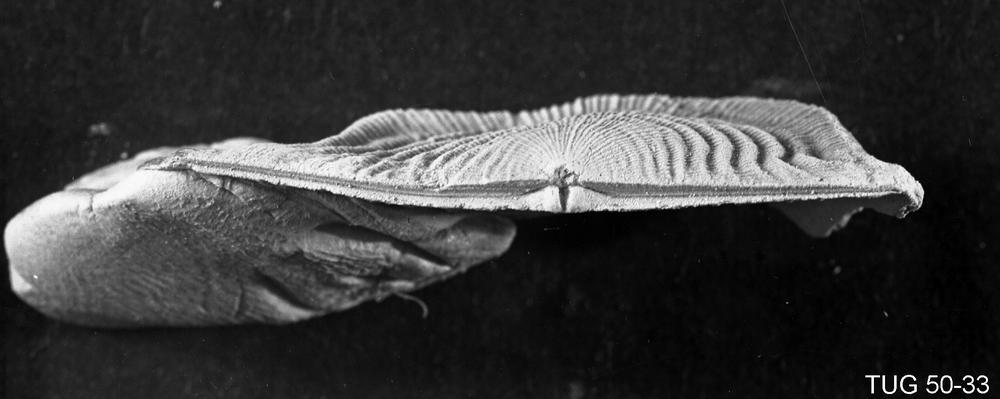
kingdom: Animalia
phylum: Brachiopoda
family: Strophomenidae
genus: Leptaena
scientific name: Leptaena
